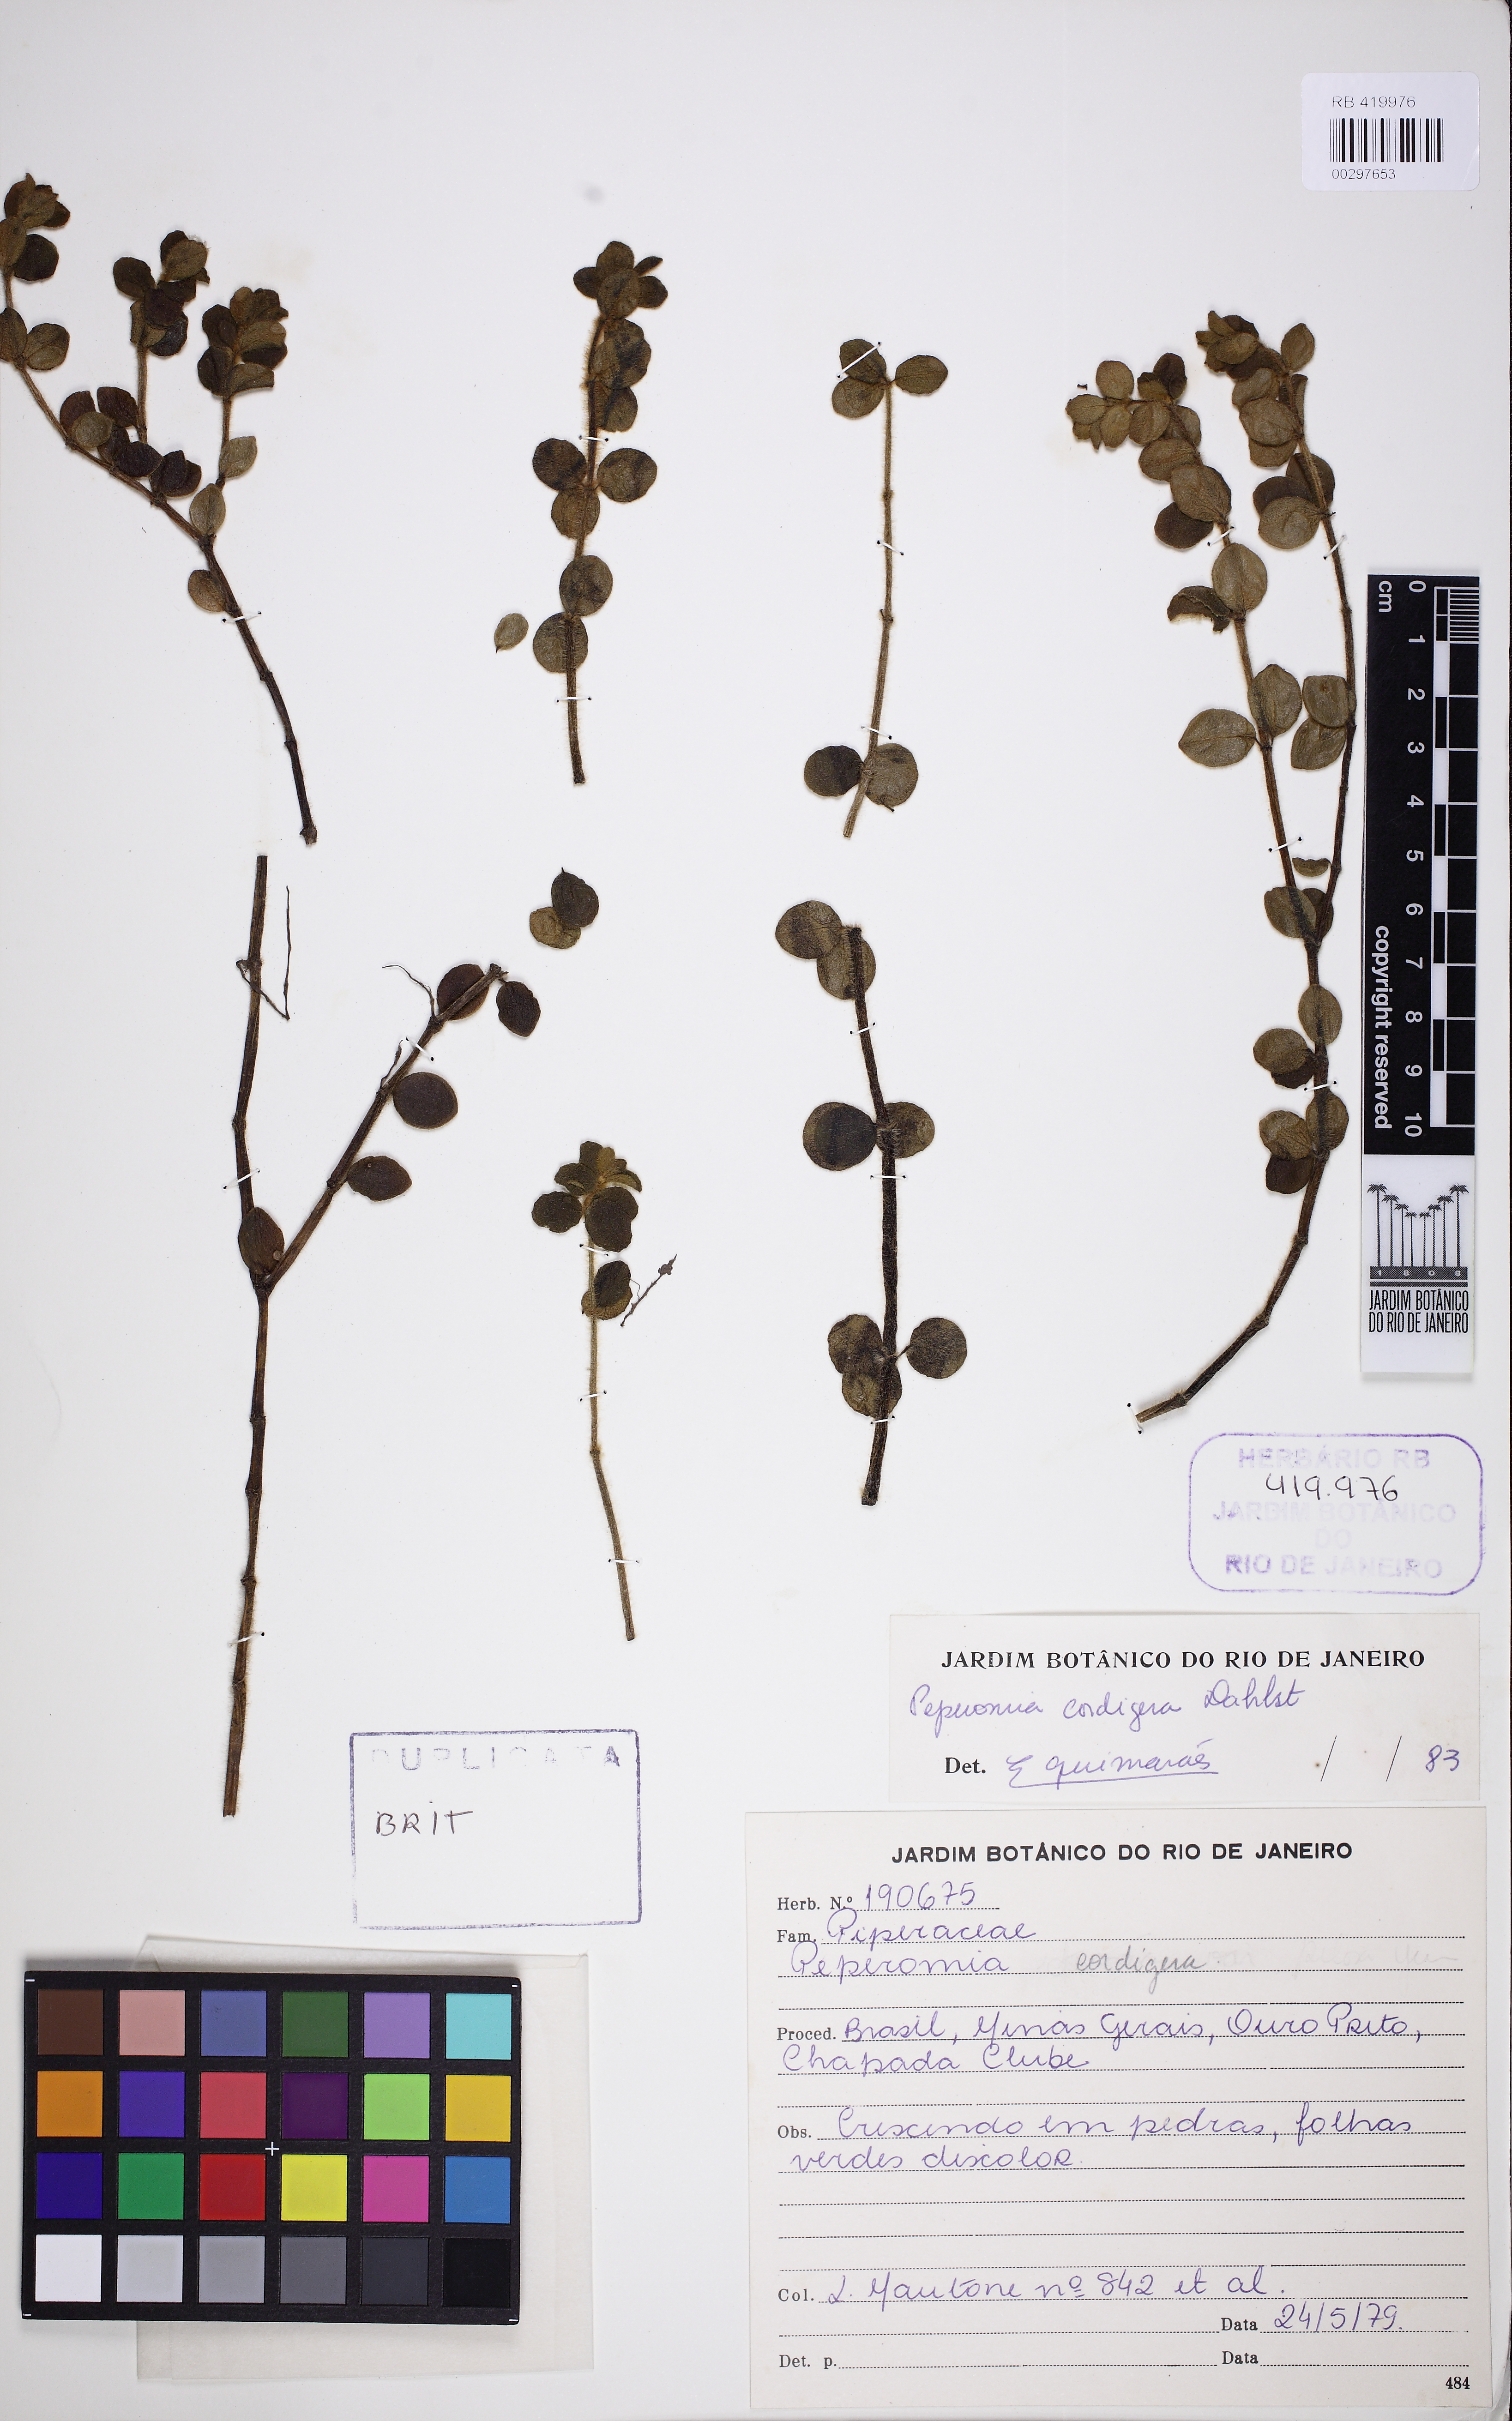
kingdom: Plantae
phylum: Tracheophyta
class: Magnoliopsida
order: Piperales
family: Piperaceae
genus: Peperomia
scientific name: Peperomia cordigera
